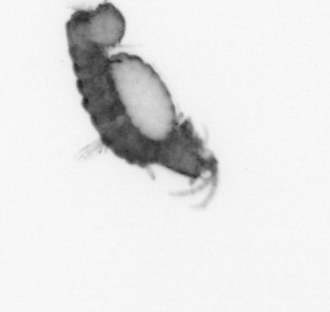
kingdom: Animalia
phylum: Annelida
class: Polychaeta
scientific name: Polychaeta
